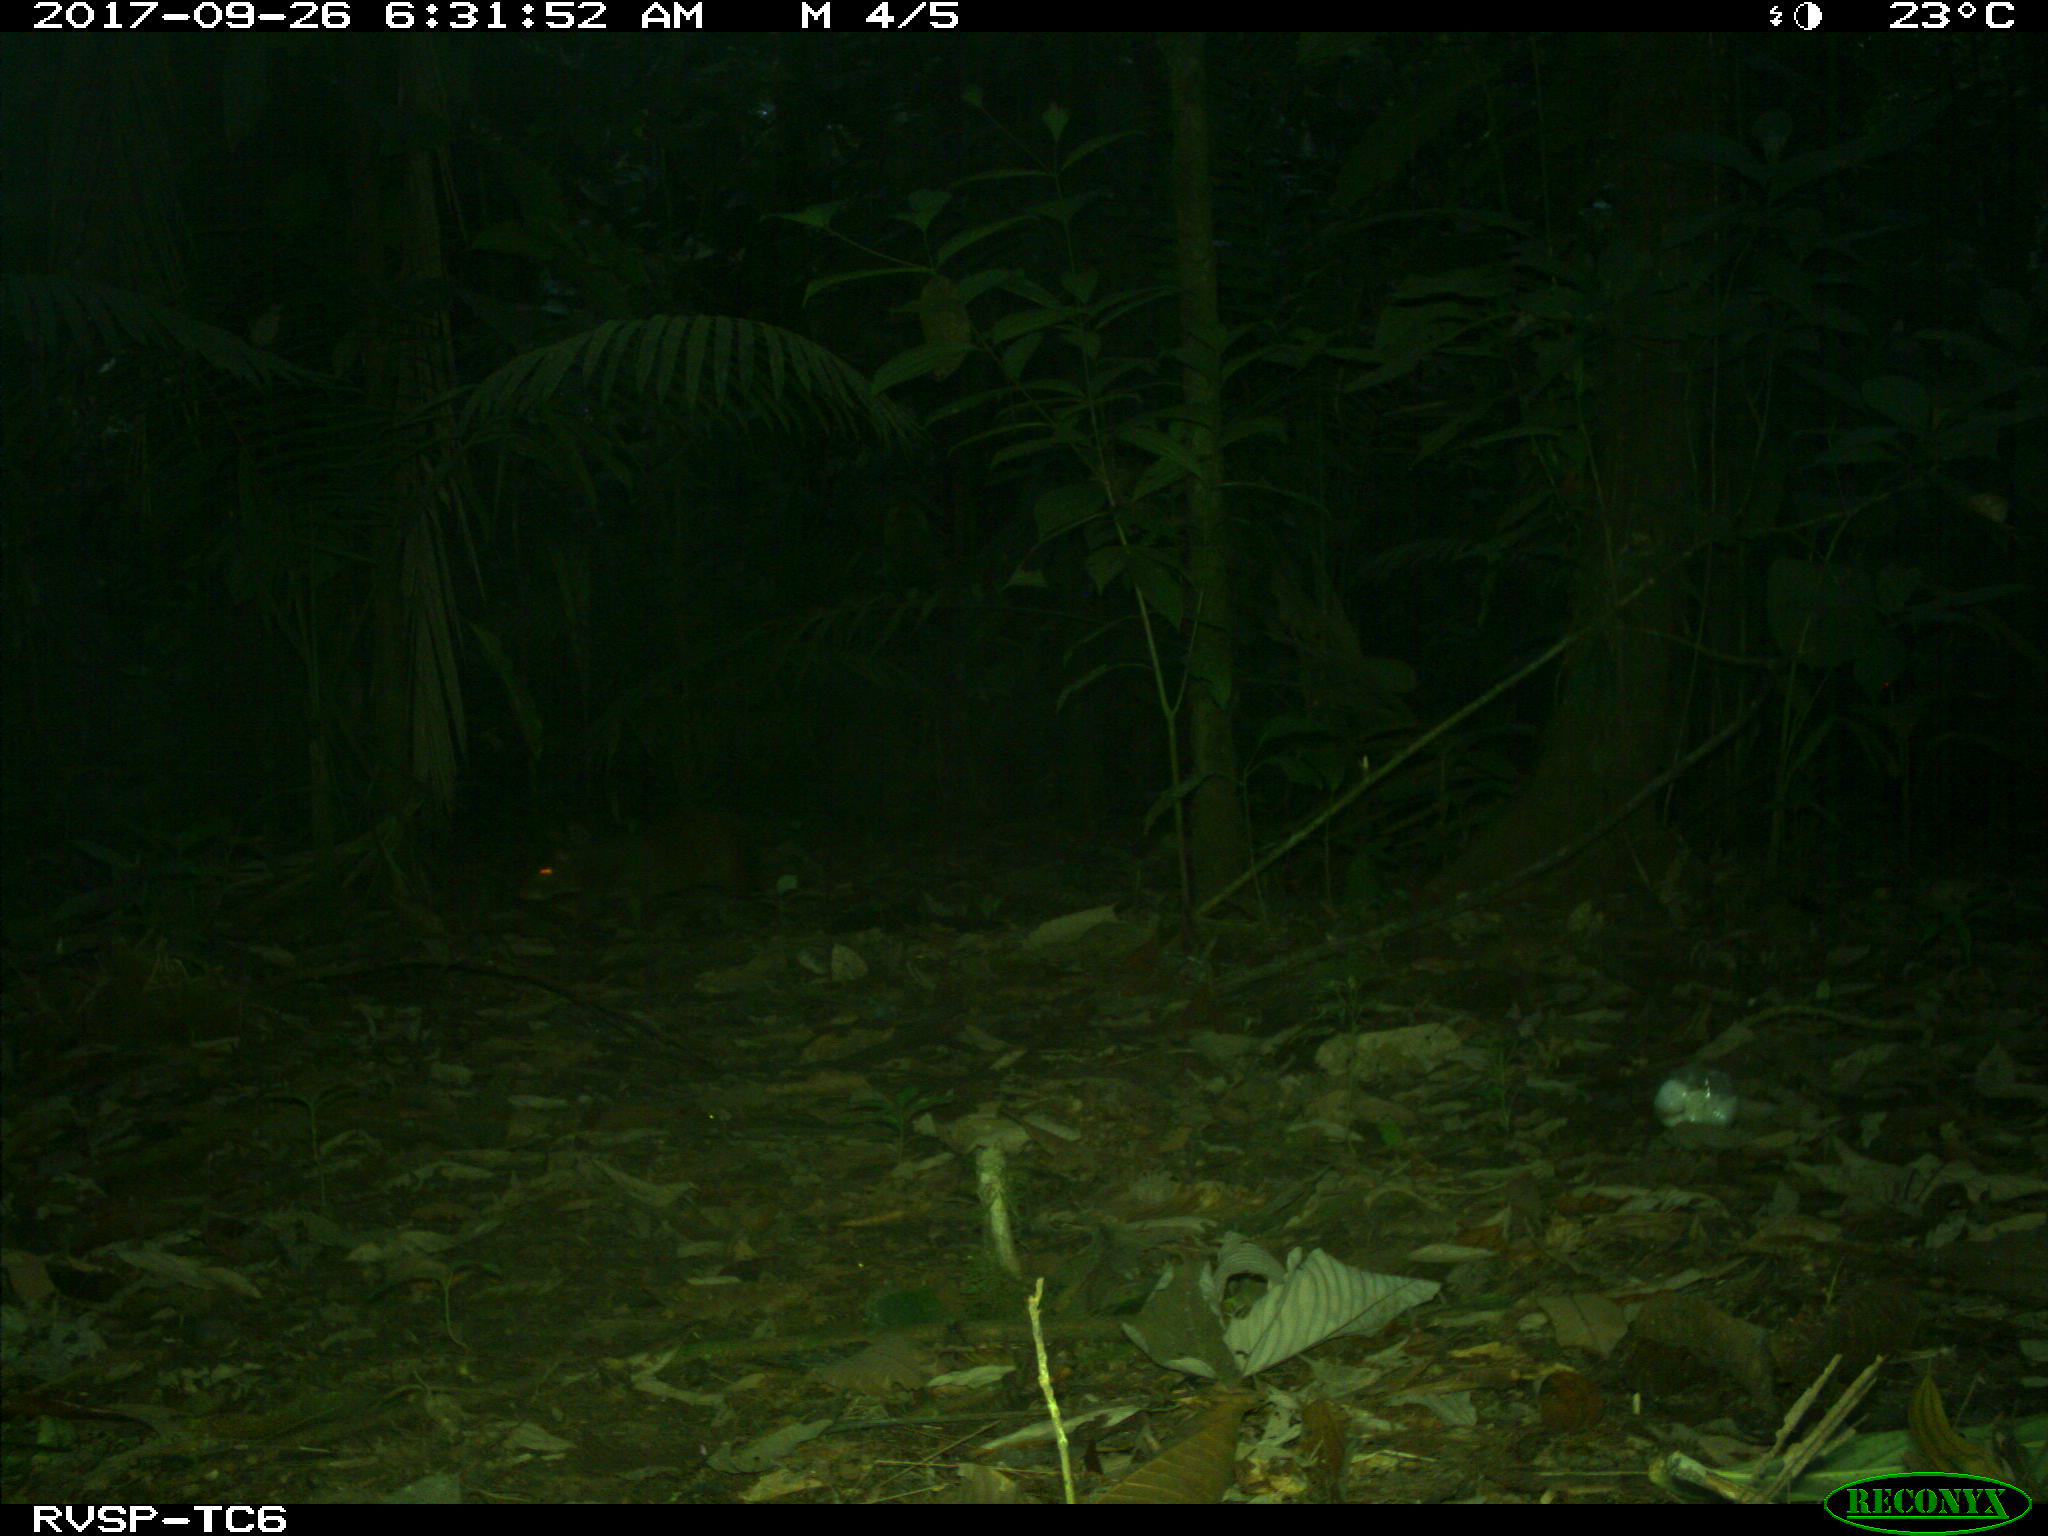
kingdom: Animalia
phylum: Chordata
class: Mammalia
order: Rodentia
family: Dasyproctidae
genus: Dasyprocta
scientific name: Dasyprocta punctata
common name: Central american agouti
